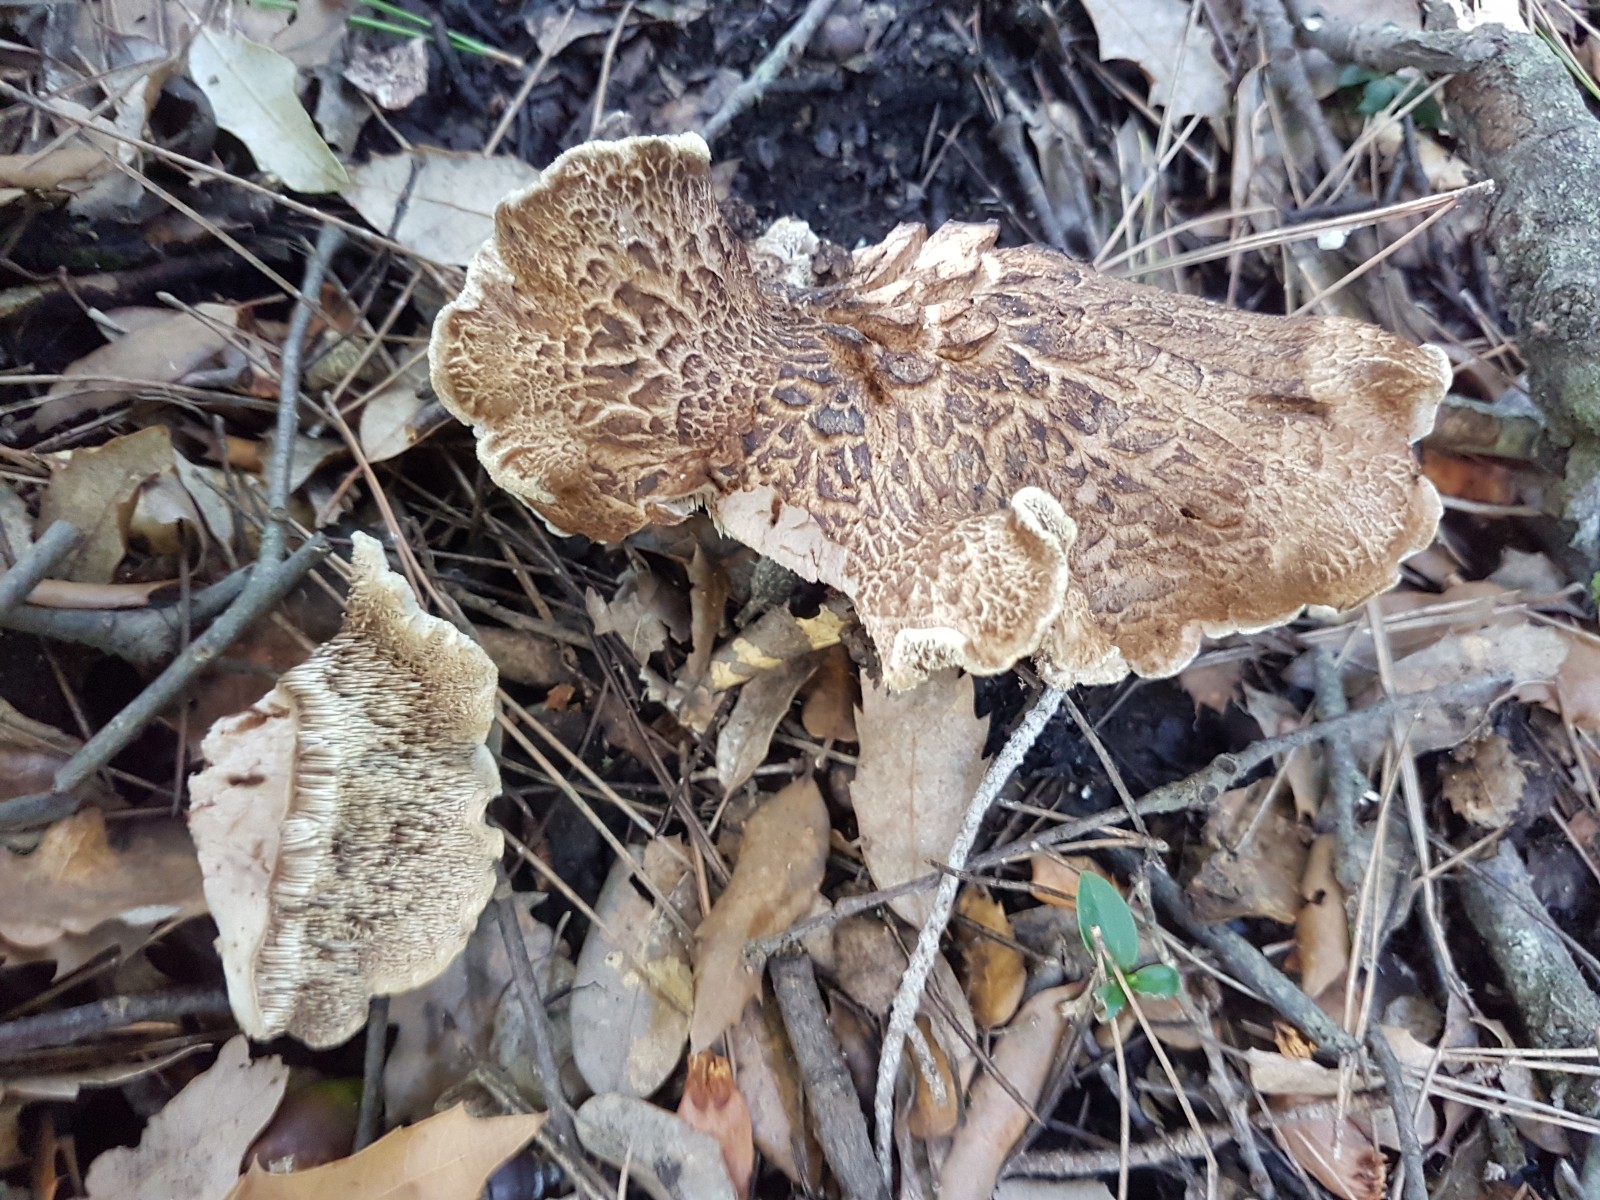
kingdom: Fungi
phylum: Basidiomycota
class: Agaricomycetes
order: Thelephorales
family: Bankeraceae
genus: Sarcodon
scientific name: Sarcodon
